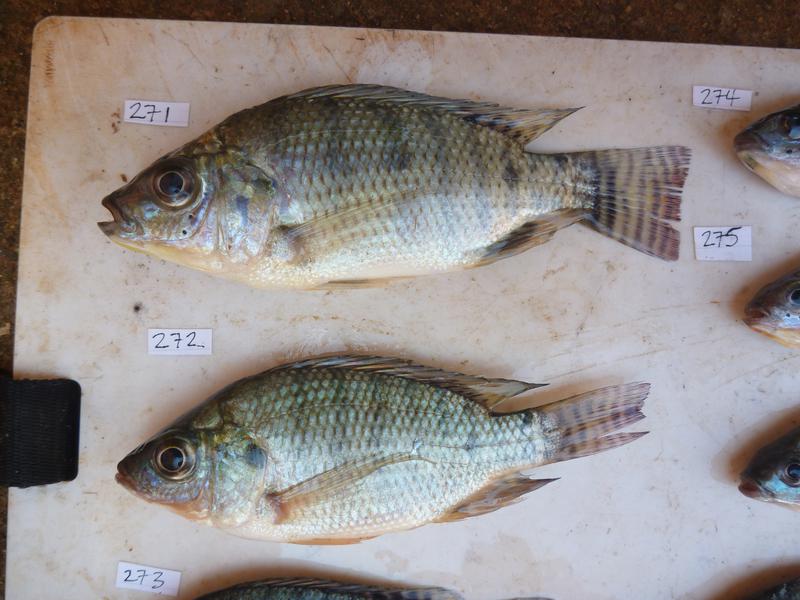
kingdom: Animalia
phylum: Chordata
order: Perciformes
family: Cichlidae
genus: Oreochromis
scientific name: Oreochromis niloticus
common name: Nile tilapia
